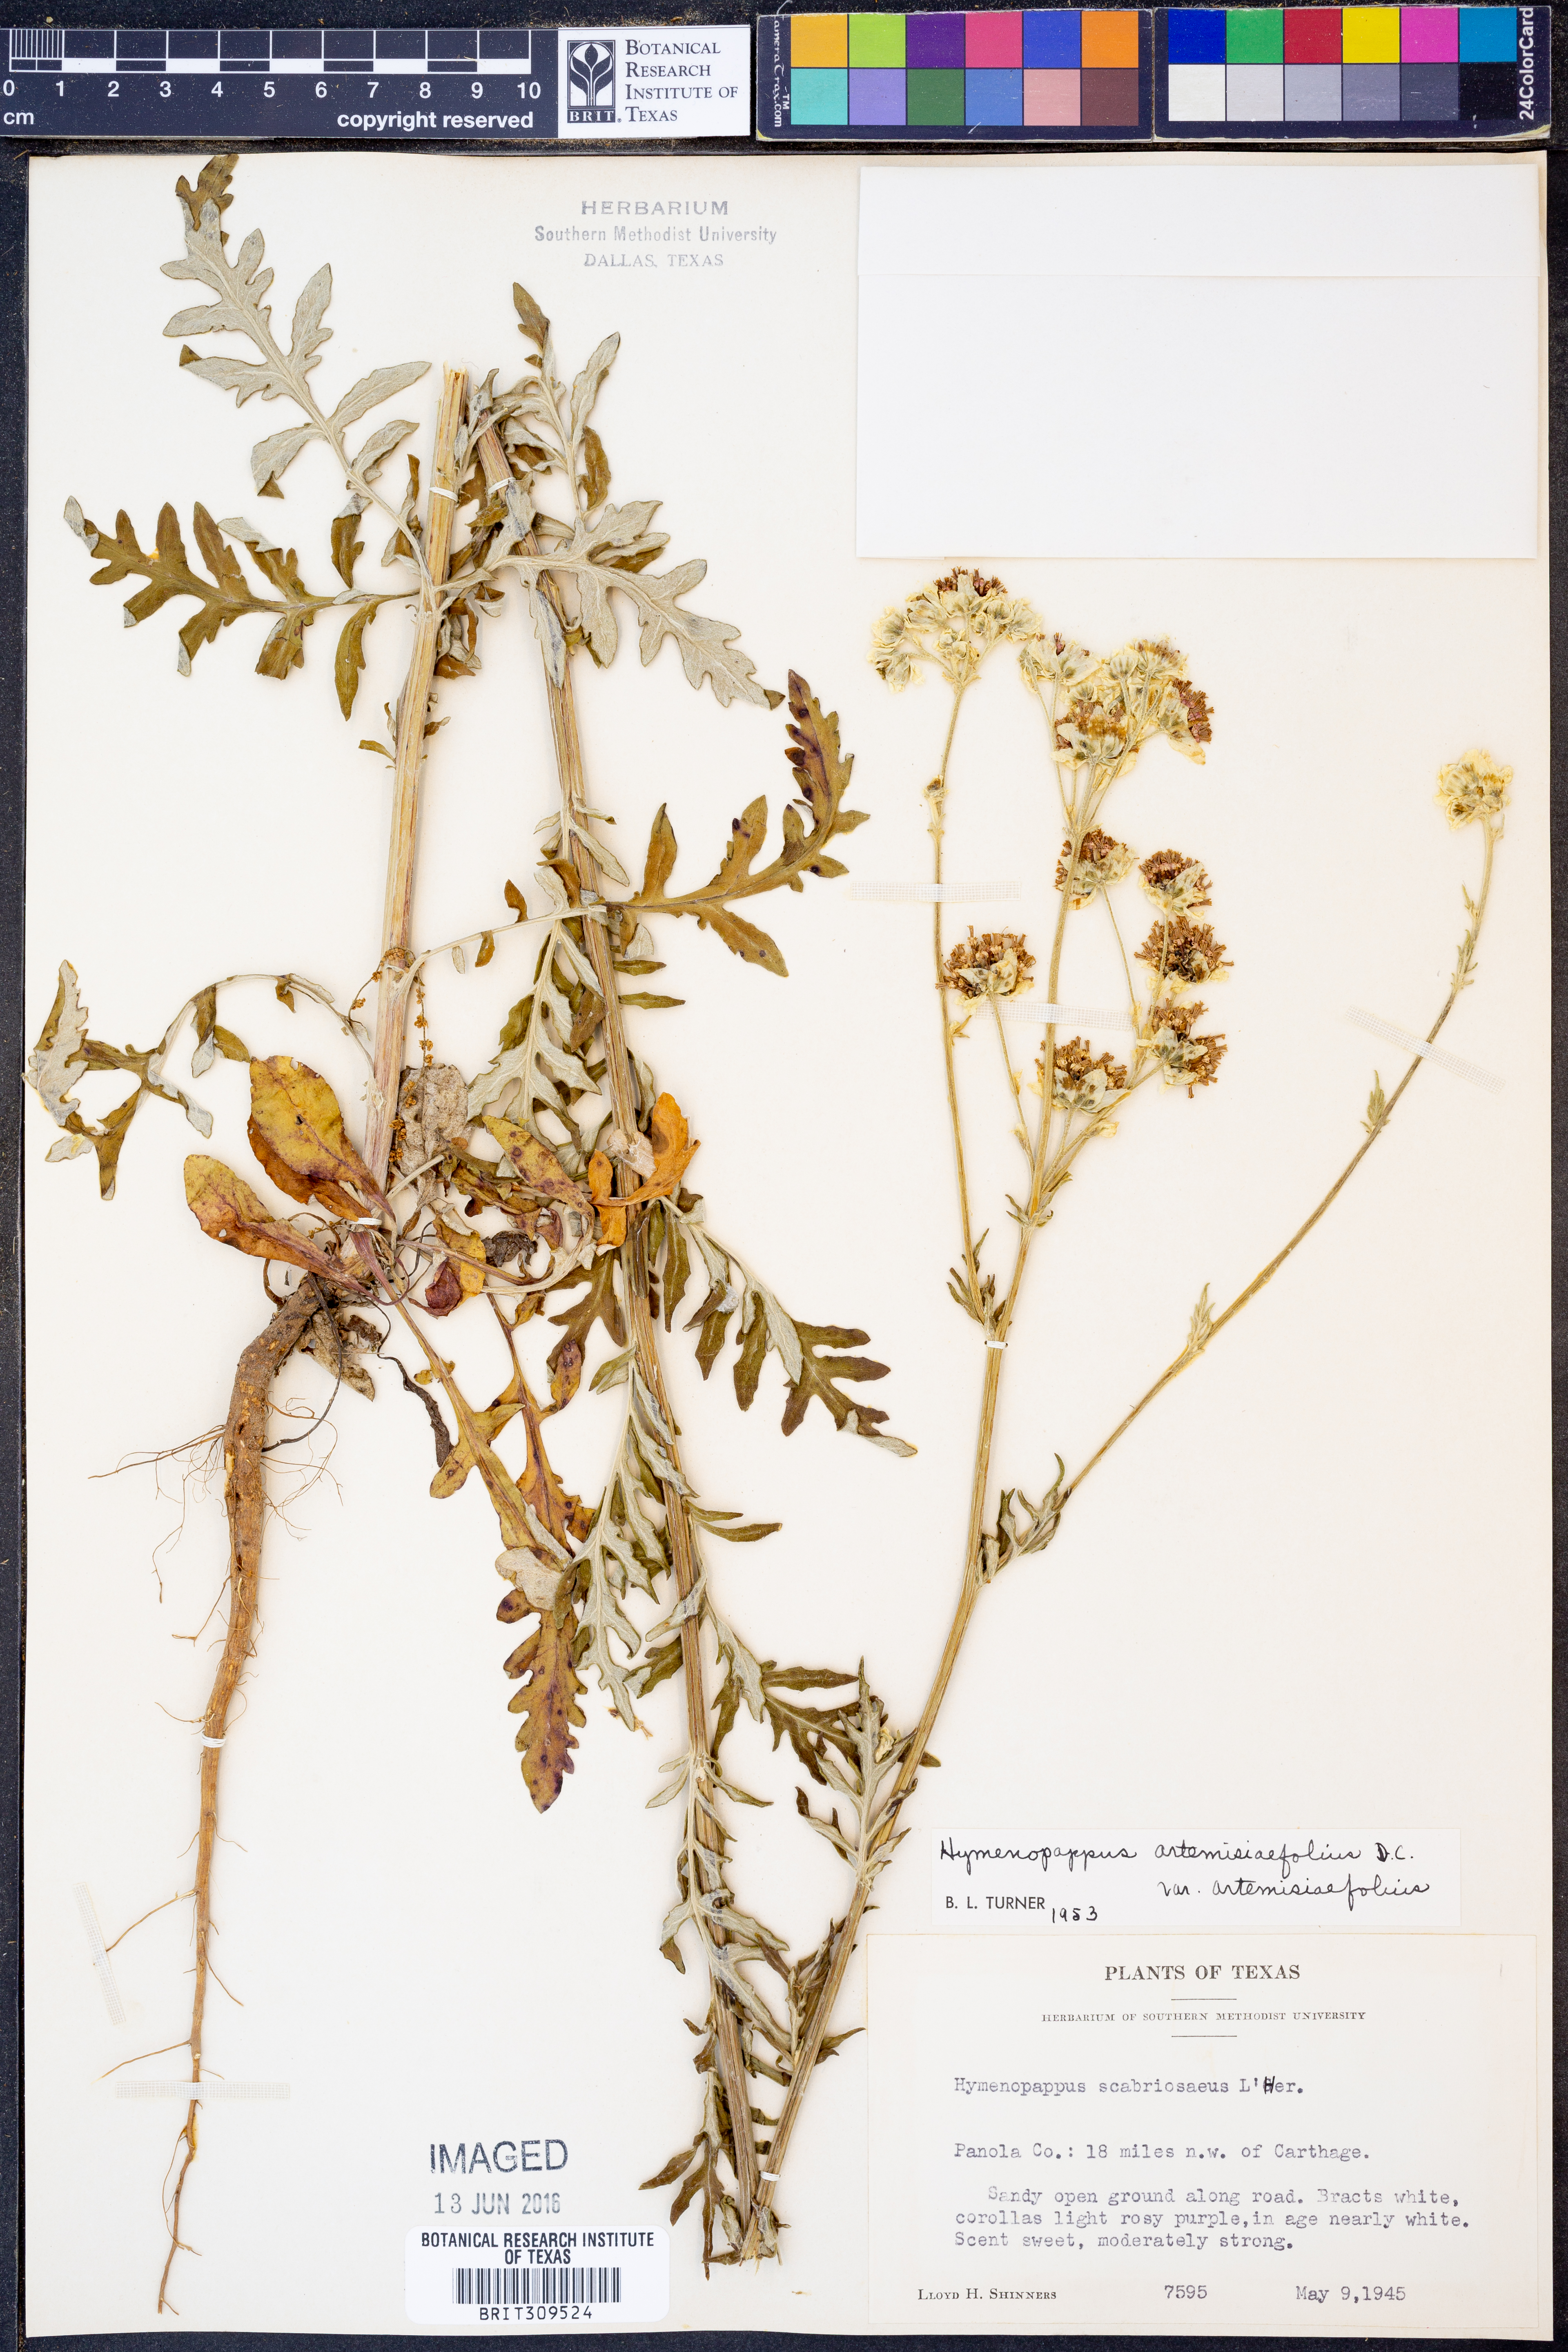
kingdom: Plantae
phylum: Tracheophyta
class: Magnoliopsida
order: Asterales
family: Asteraceae
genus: Hymenopappus
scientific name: Hymenopappus artemisiifolius
